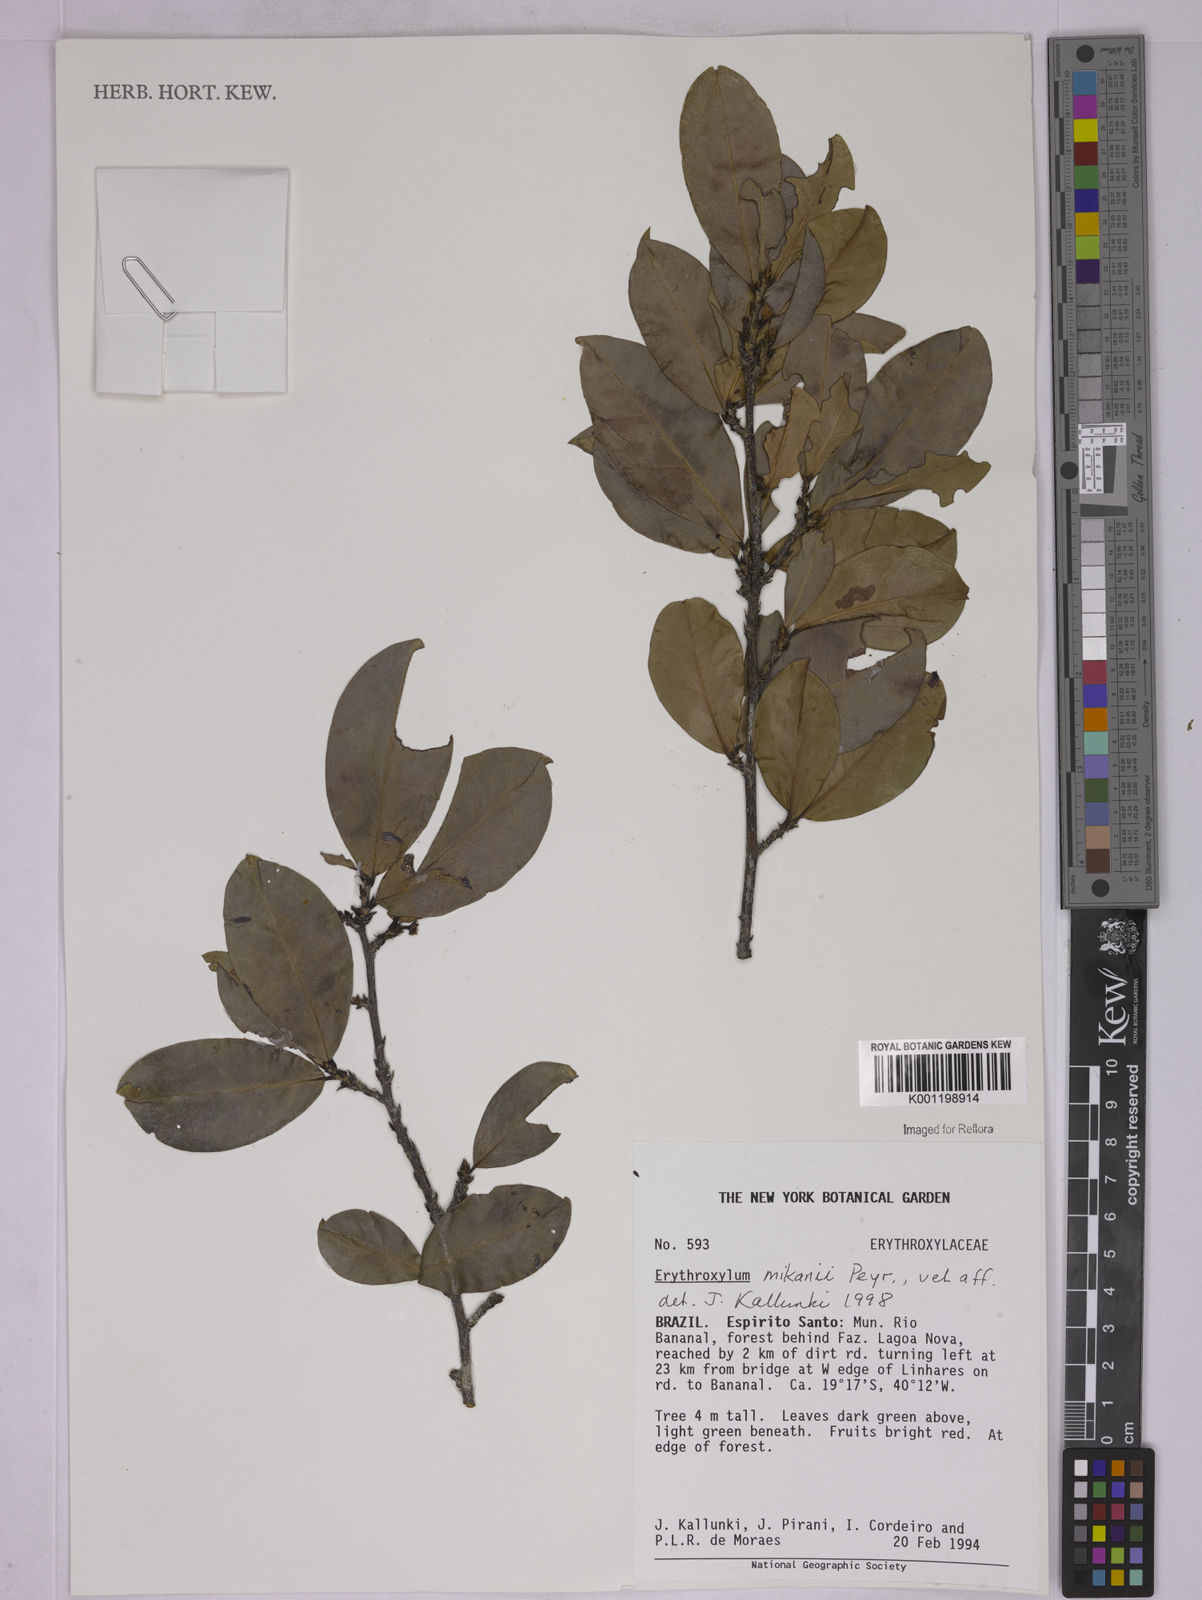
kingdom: Plantae
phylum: Tracheophyta
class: Magnoliopsida
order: Malpighiales
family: Erythroxylaceae
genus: Erythroxylum
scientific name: Erythroxylum mikanii
